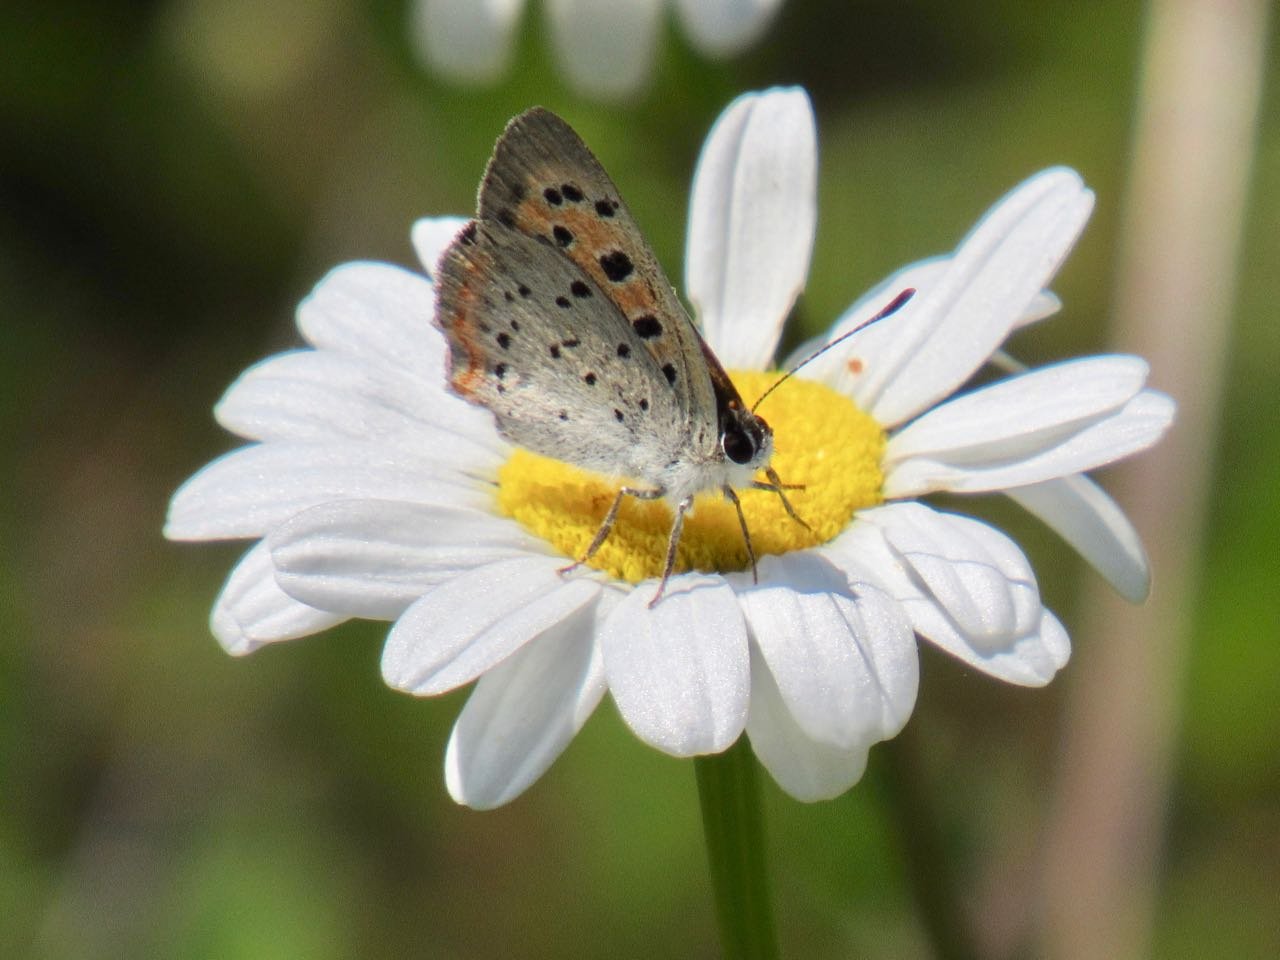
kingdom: Animalia
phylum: Arthropoda
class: Insecta
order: Lepidoptera
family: Lycaenidae
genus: Lycaena
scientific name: Lycaena phlaeas
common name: American Copper
